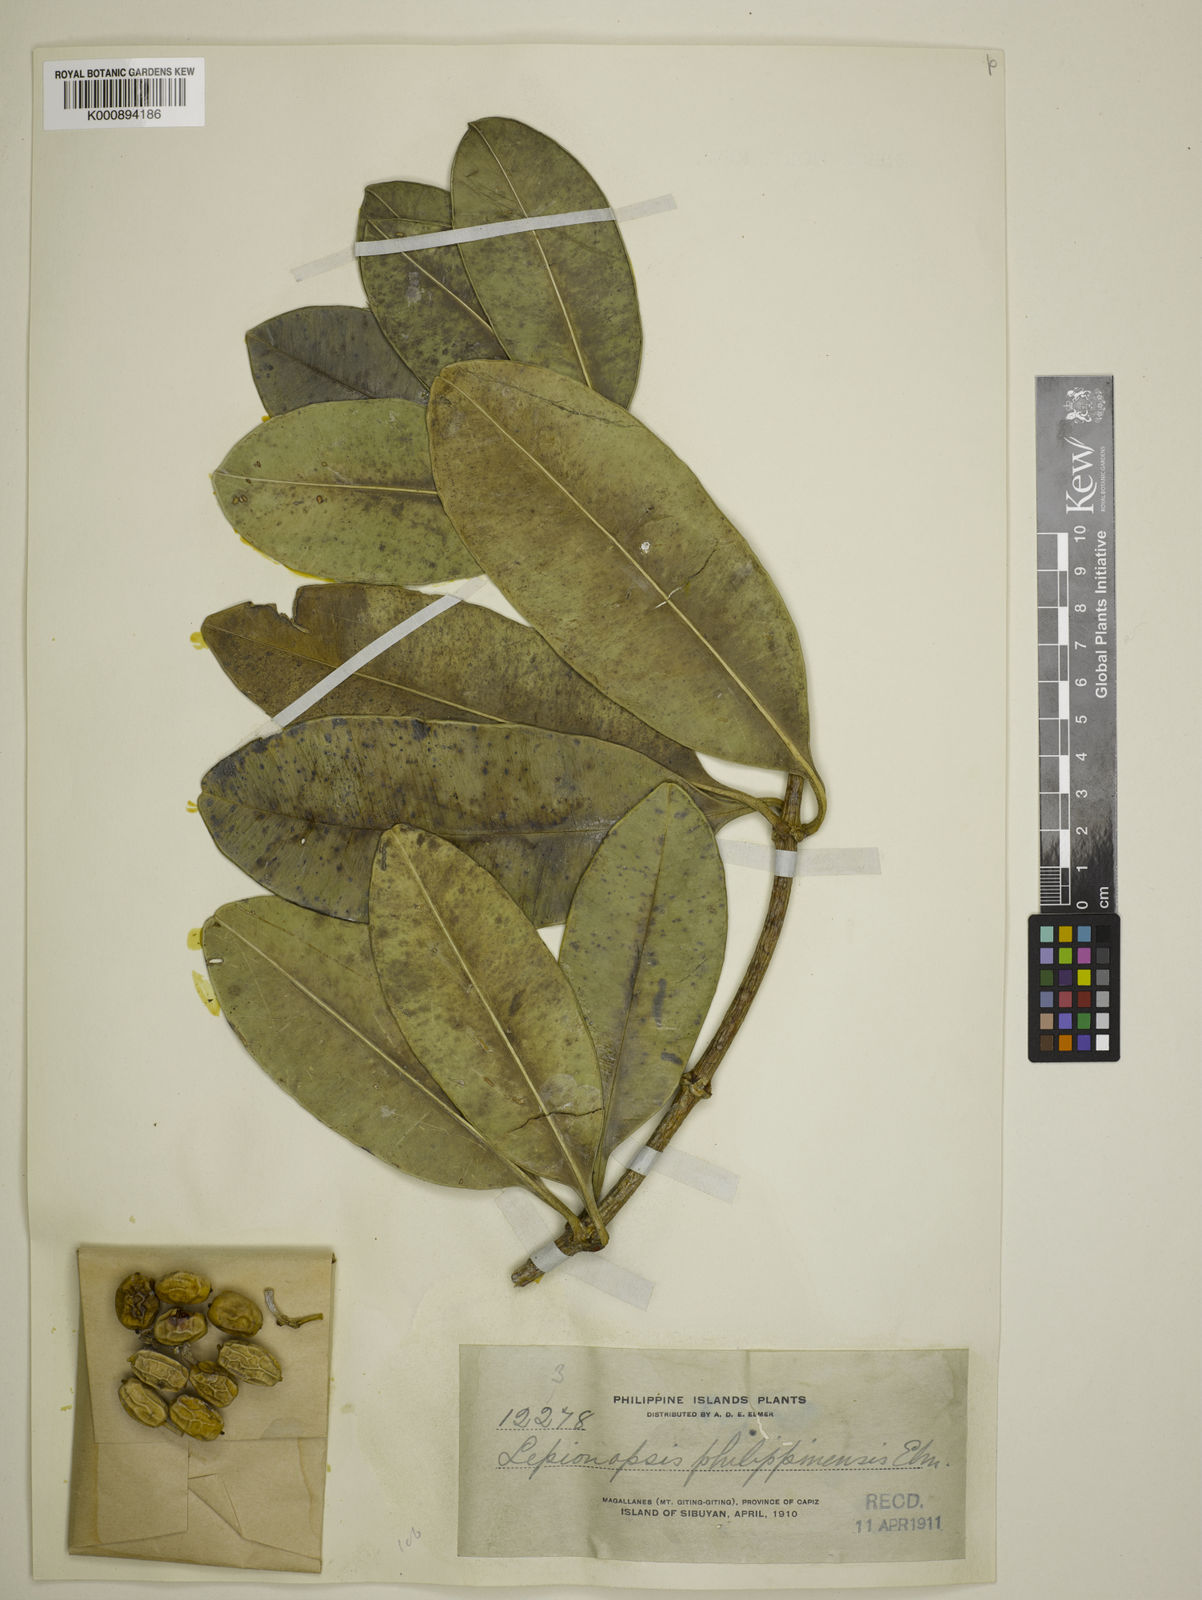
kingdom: Plantae
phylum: Tracheophyta
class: Magnoliopsida
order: Gentianales
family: Apocynaceae
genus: Lepiniopsis
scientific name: Lepiniopsis ternatensis
